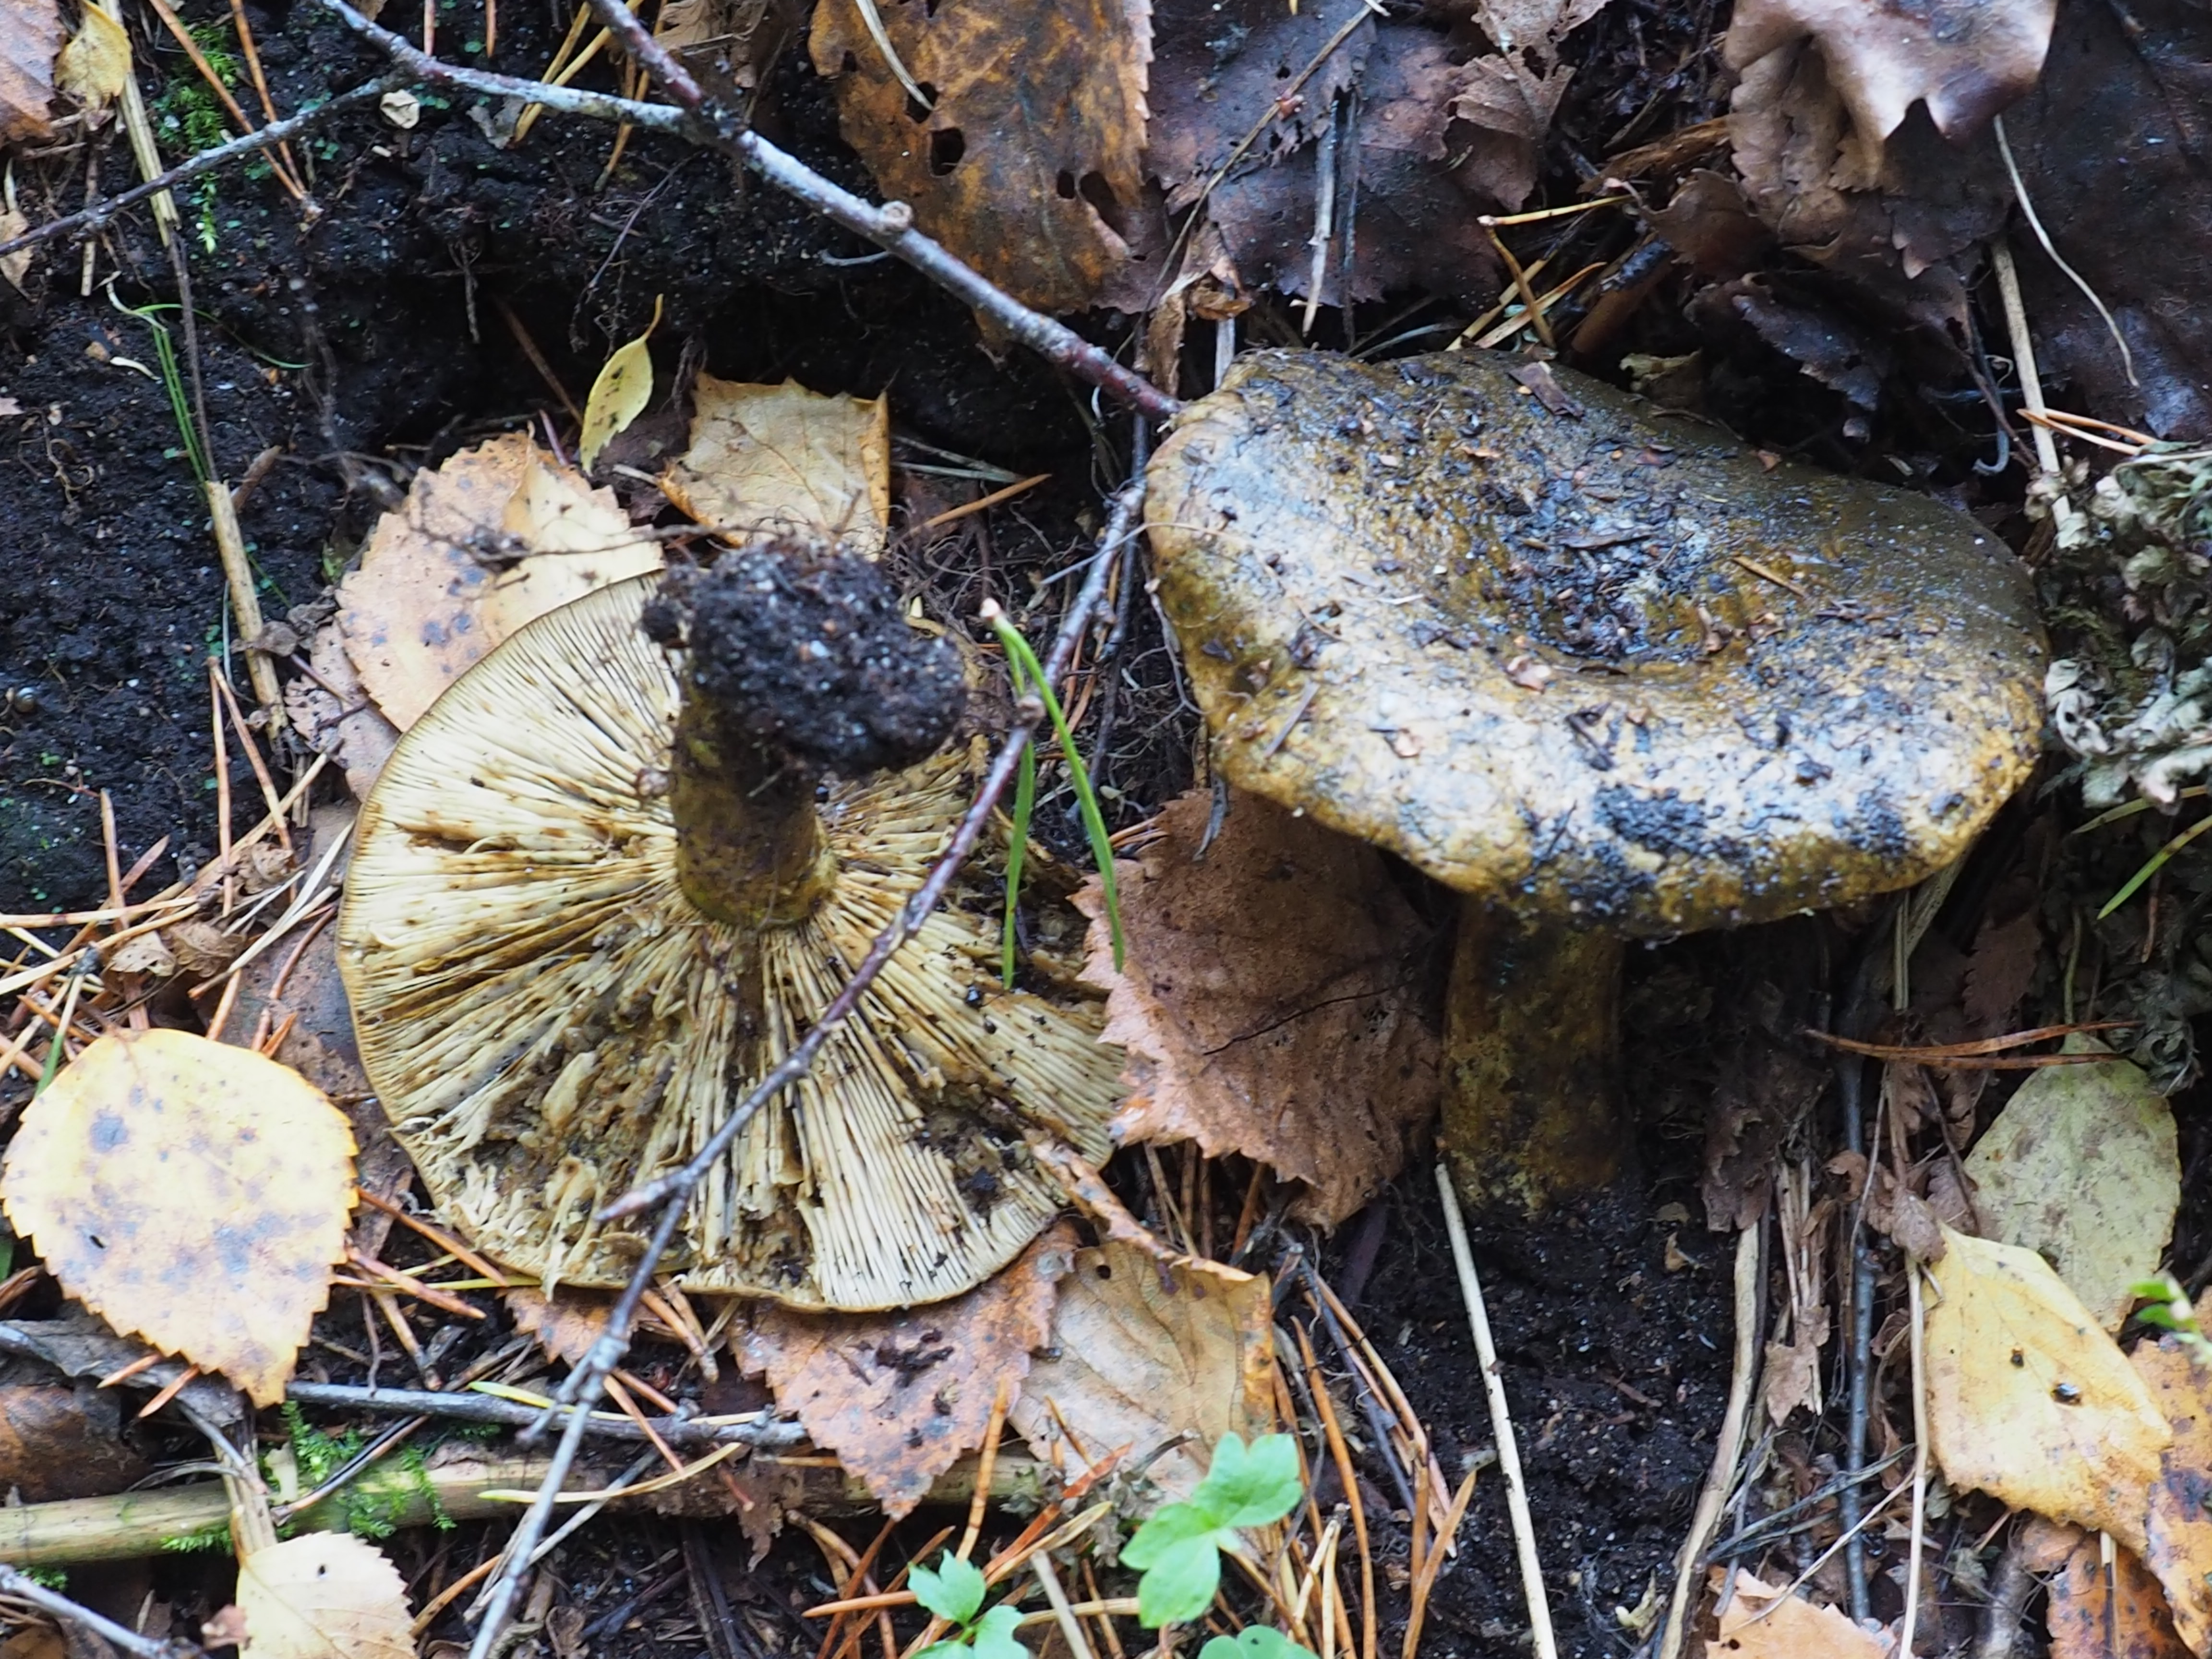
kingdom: Fungi
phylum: Basidiomycota
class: Agaricomycetes
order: Russulales
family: Russulaceae
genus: Lactarius
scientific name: Lactarius turpis
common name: Ugly milk-cap
